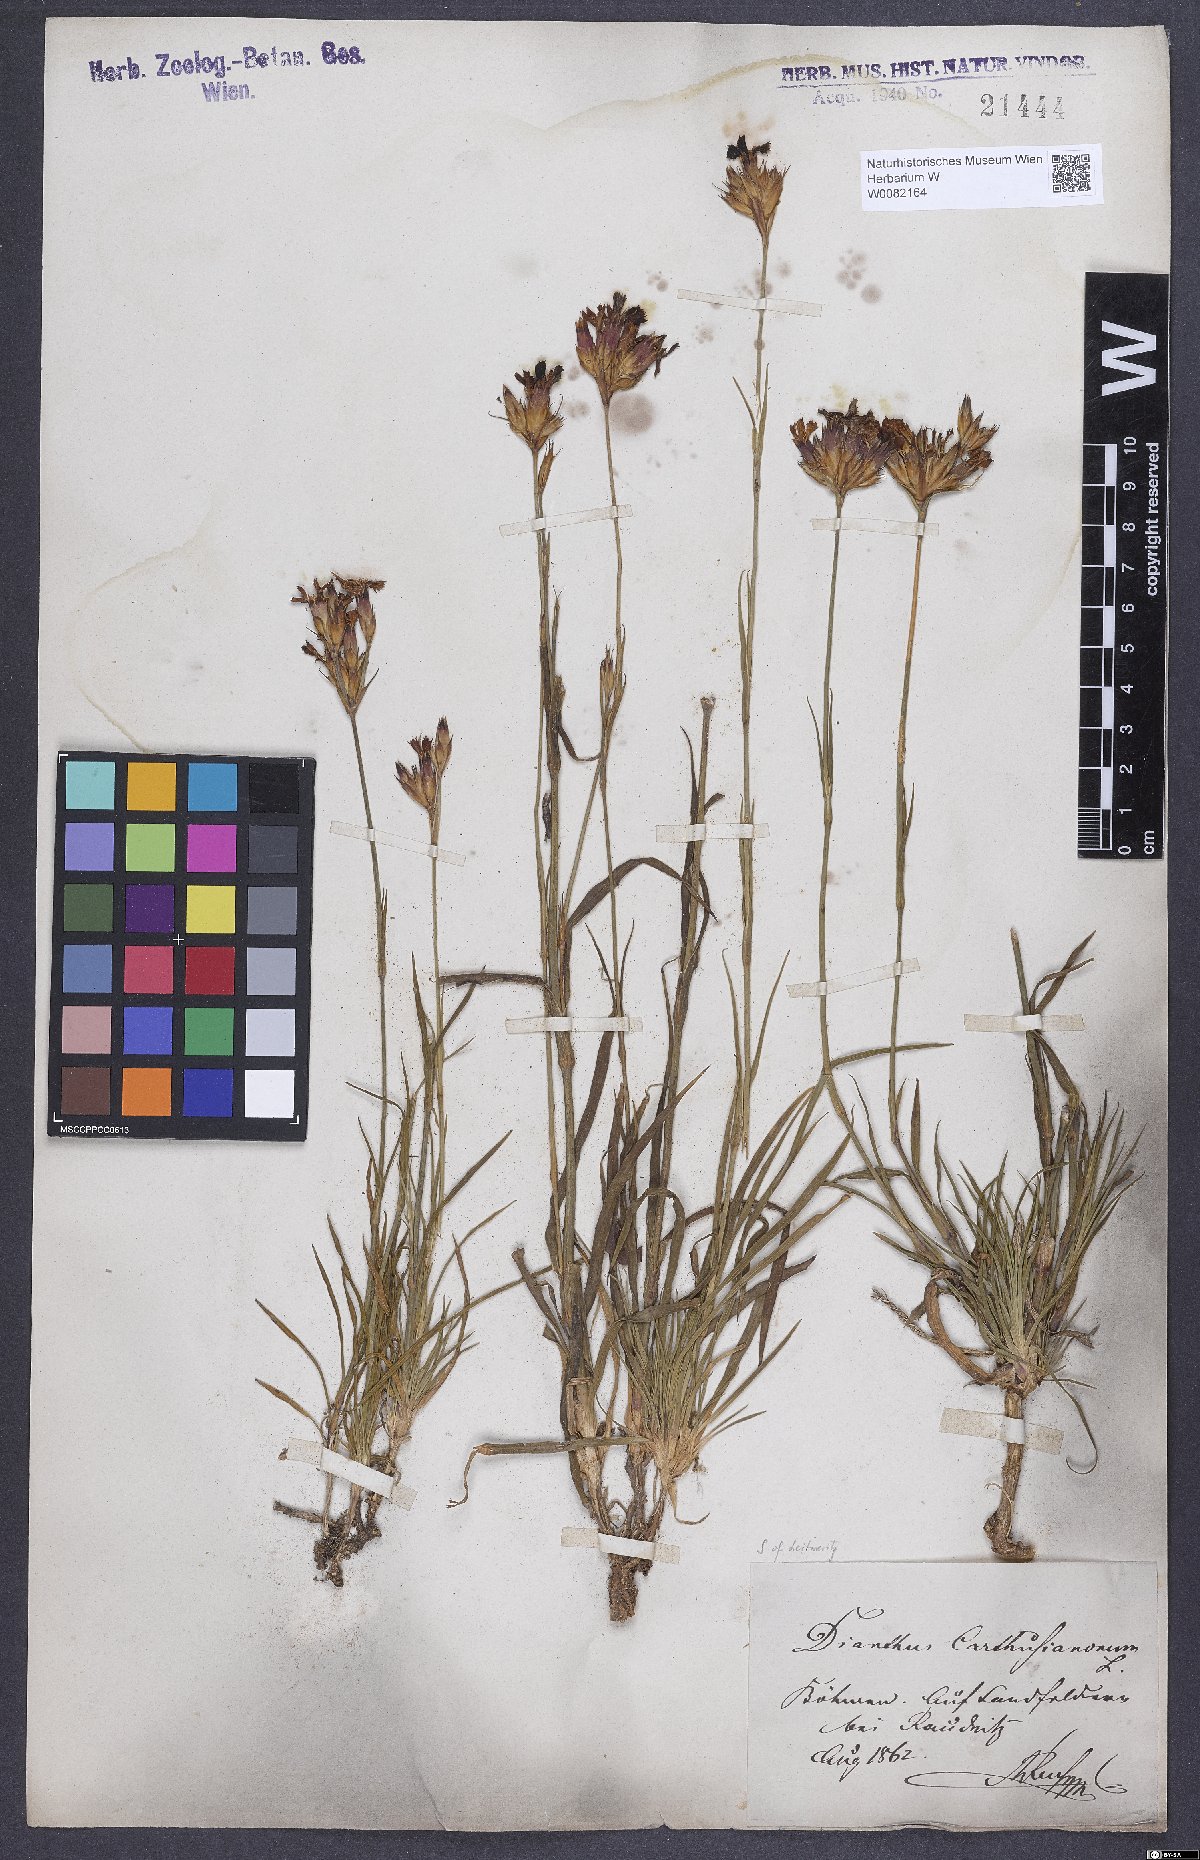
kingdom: Plantae
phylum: Tracheophyta
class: Magnoliopsida
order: Caryophyllales
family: Caryophyllaceae
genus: Dianthus
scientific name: Dianthus carthusianorum
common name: Carthusian pink
